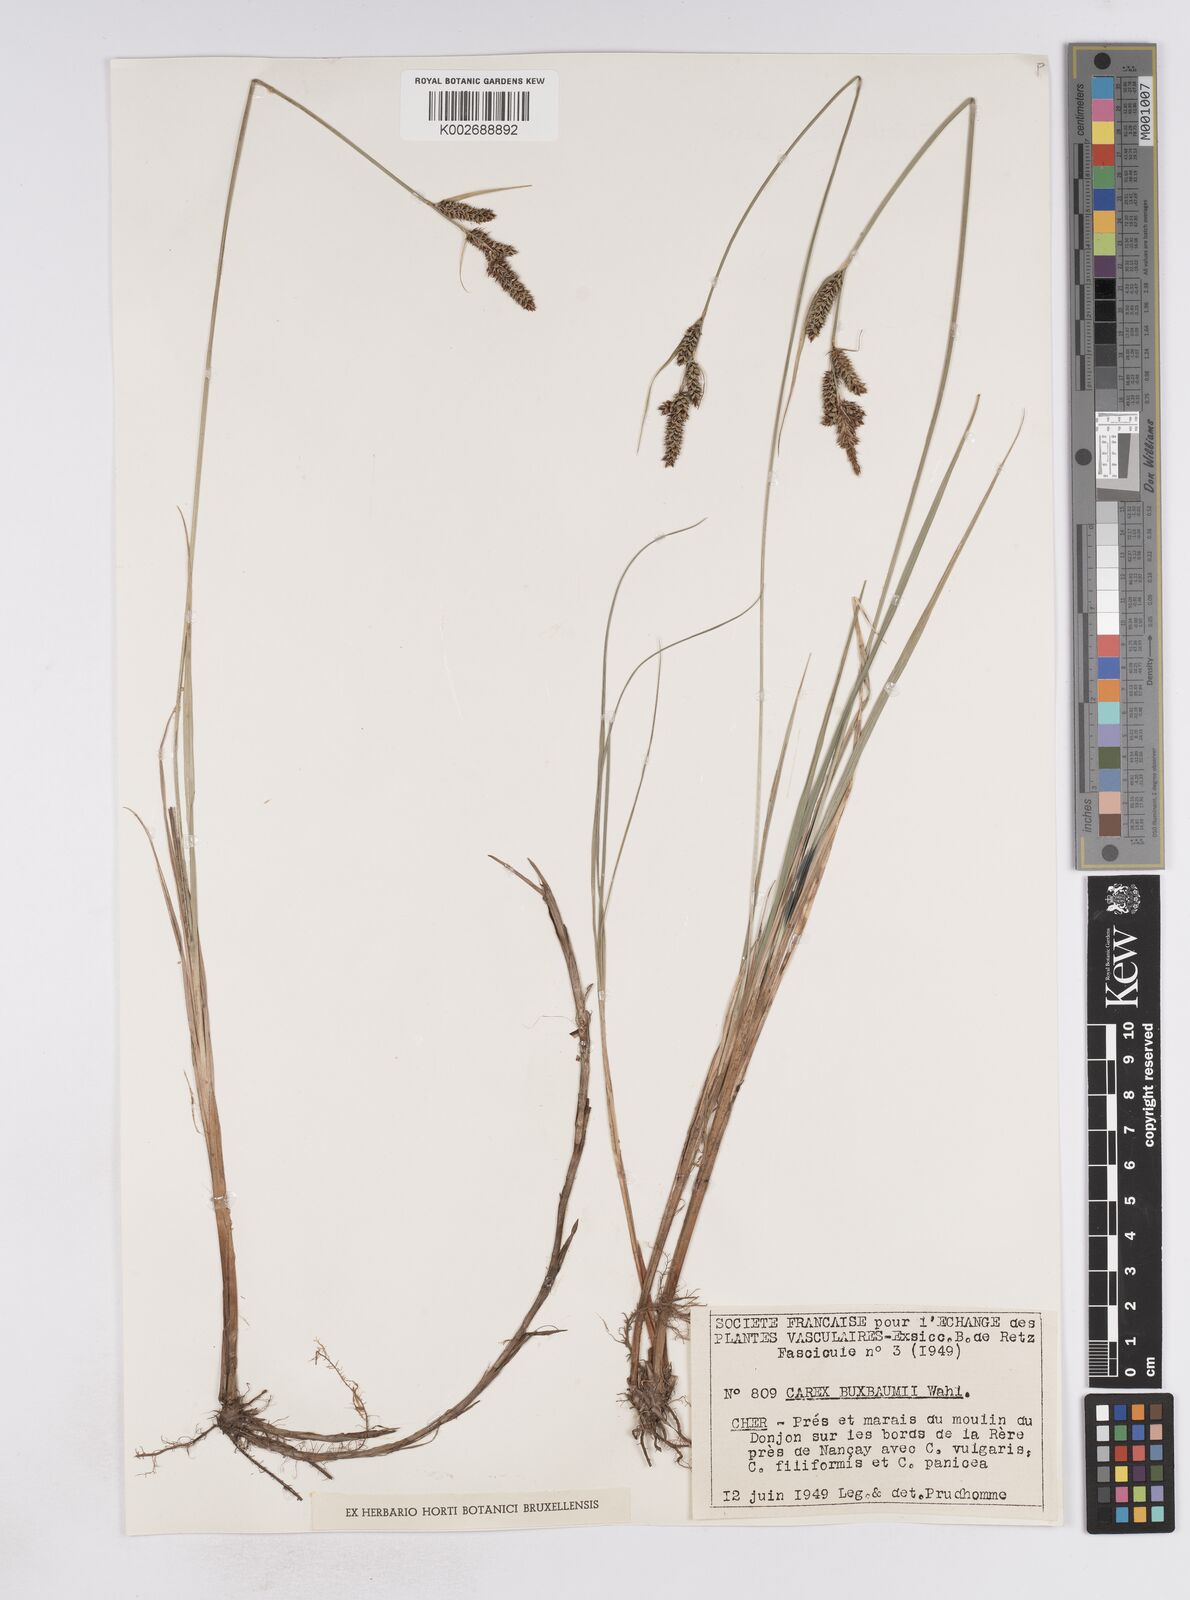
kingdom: Plantae
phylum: Tracheophyta
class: Liliopsida
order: Poales
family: Cyperaceae
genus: Carex
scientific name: Carex buxbaumii
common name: Club sedge
